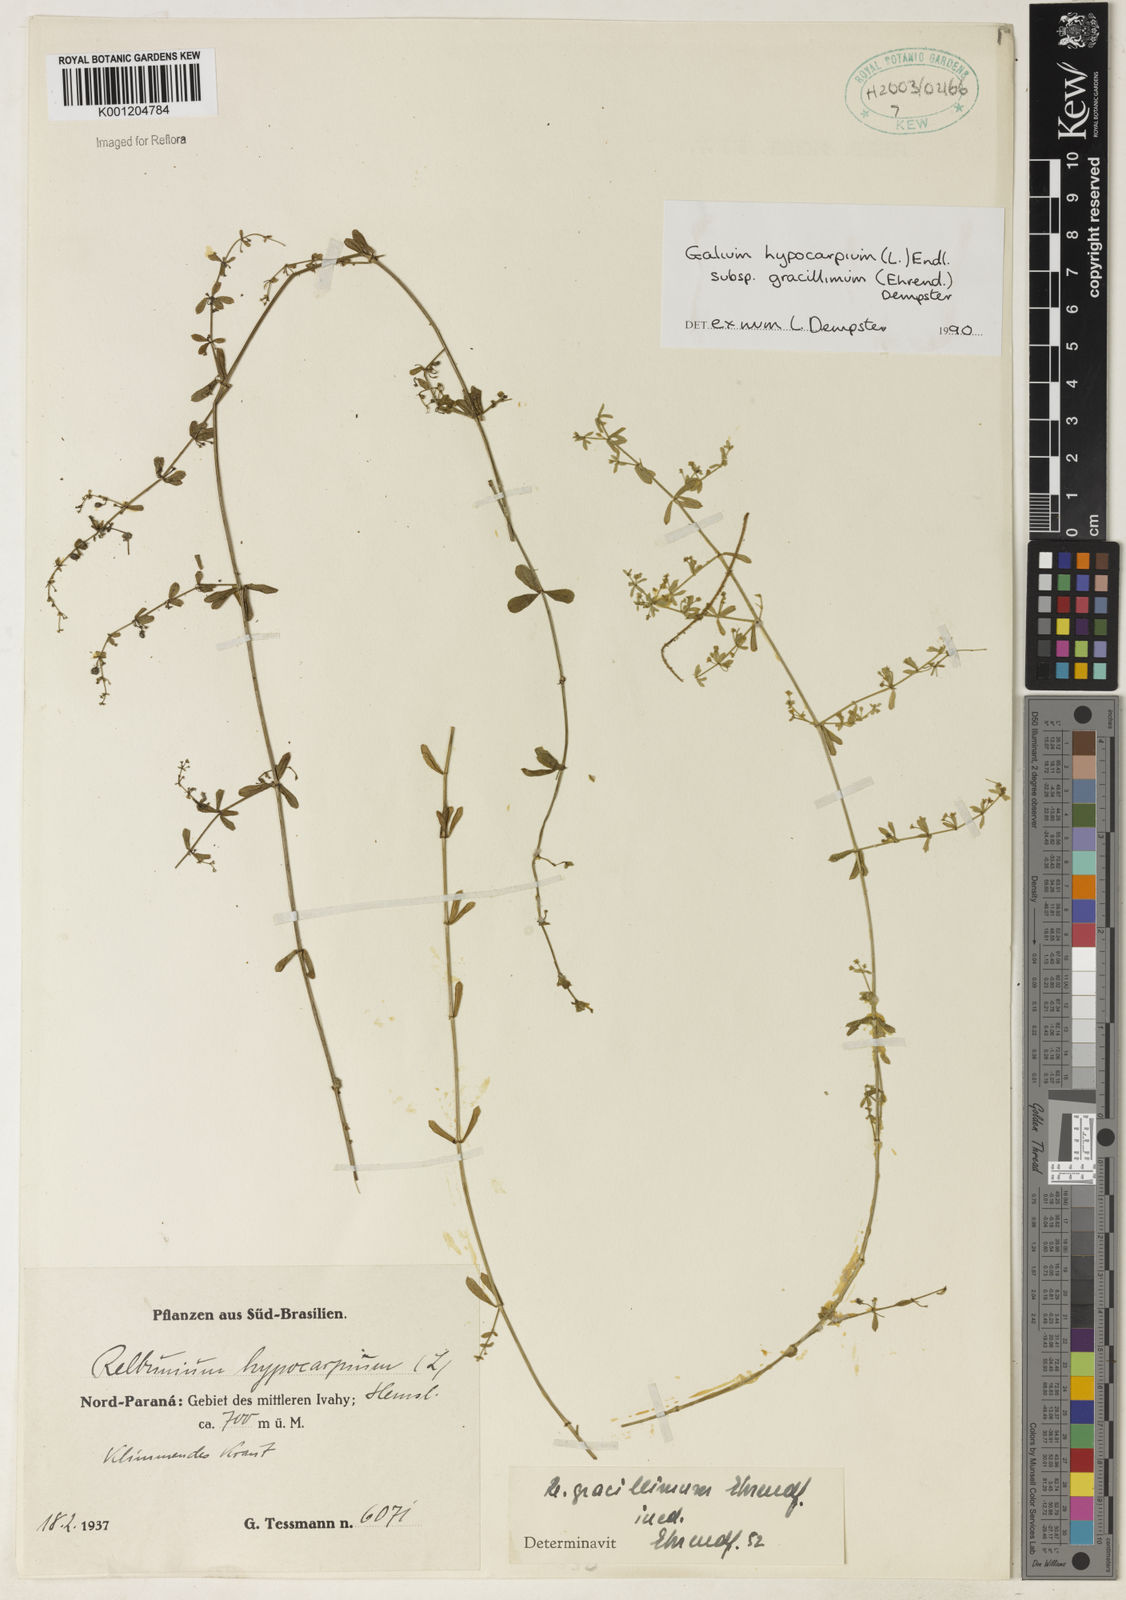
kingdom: Plantae
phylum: Tracheophyta
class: Magnoliopsida
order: Gentianales
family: Rubiaceae
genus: Galium
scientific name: Galium hypocarpium
